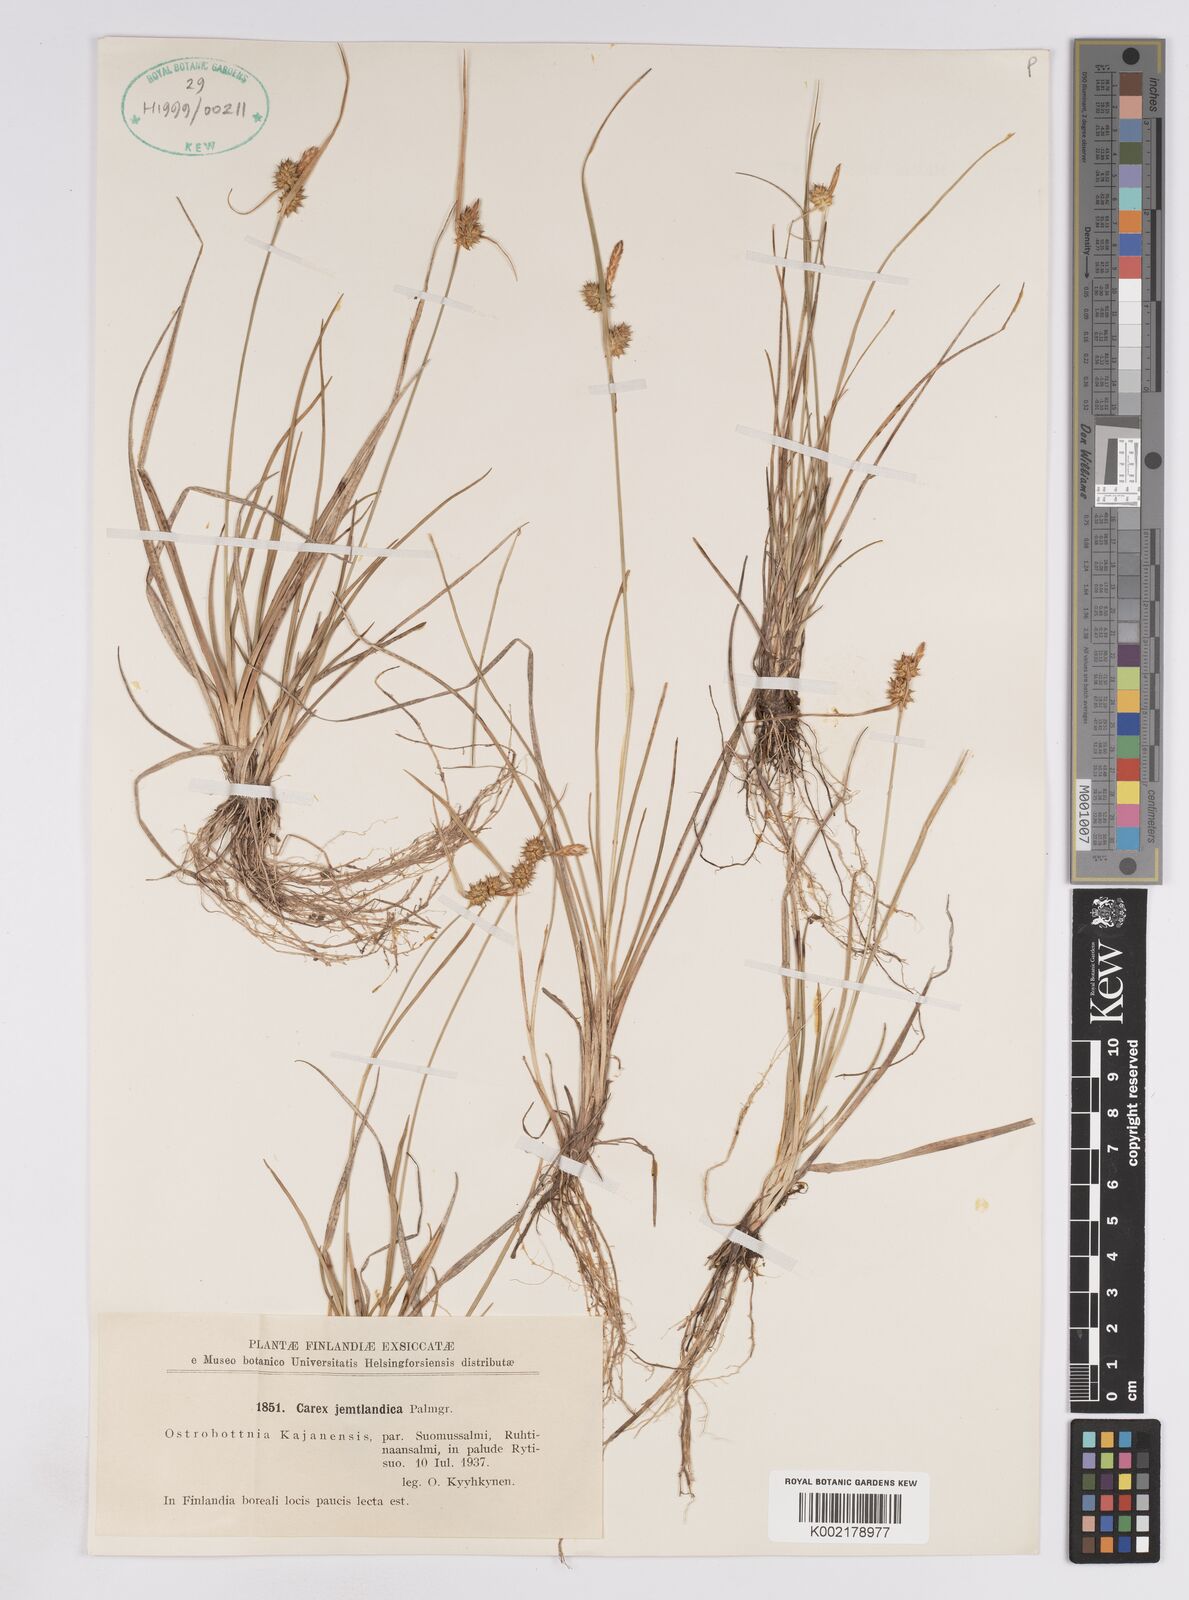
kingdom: Plantae
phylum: Tracheophyta
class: Liliopsida
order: Poales
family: Cyperaceae
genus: Carex
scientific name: Carex lepidocarpa
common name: Long-stalked yellow-sedge
